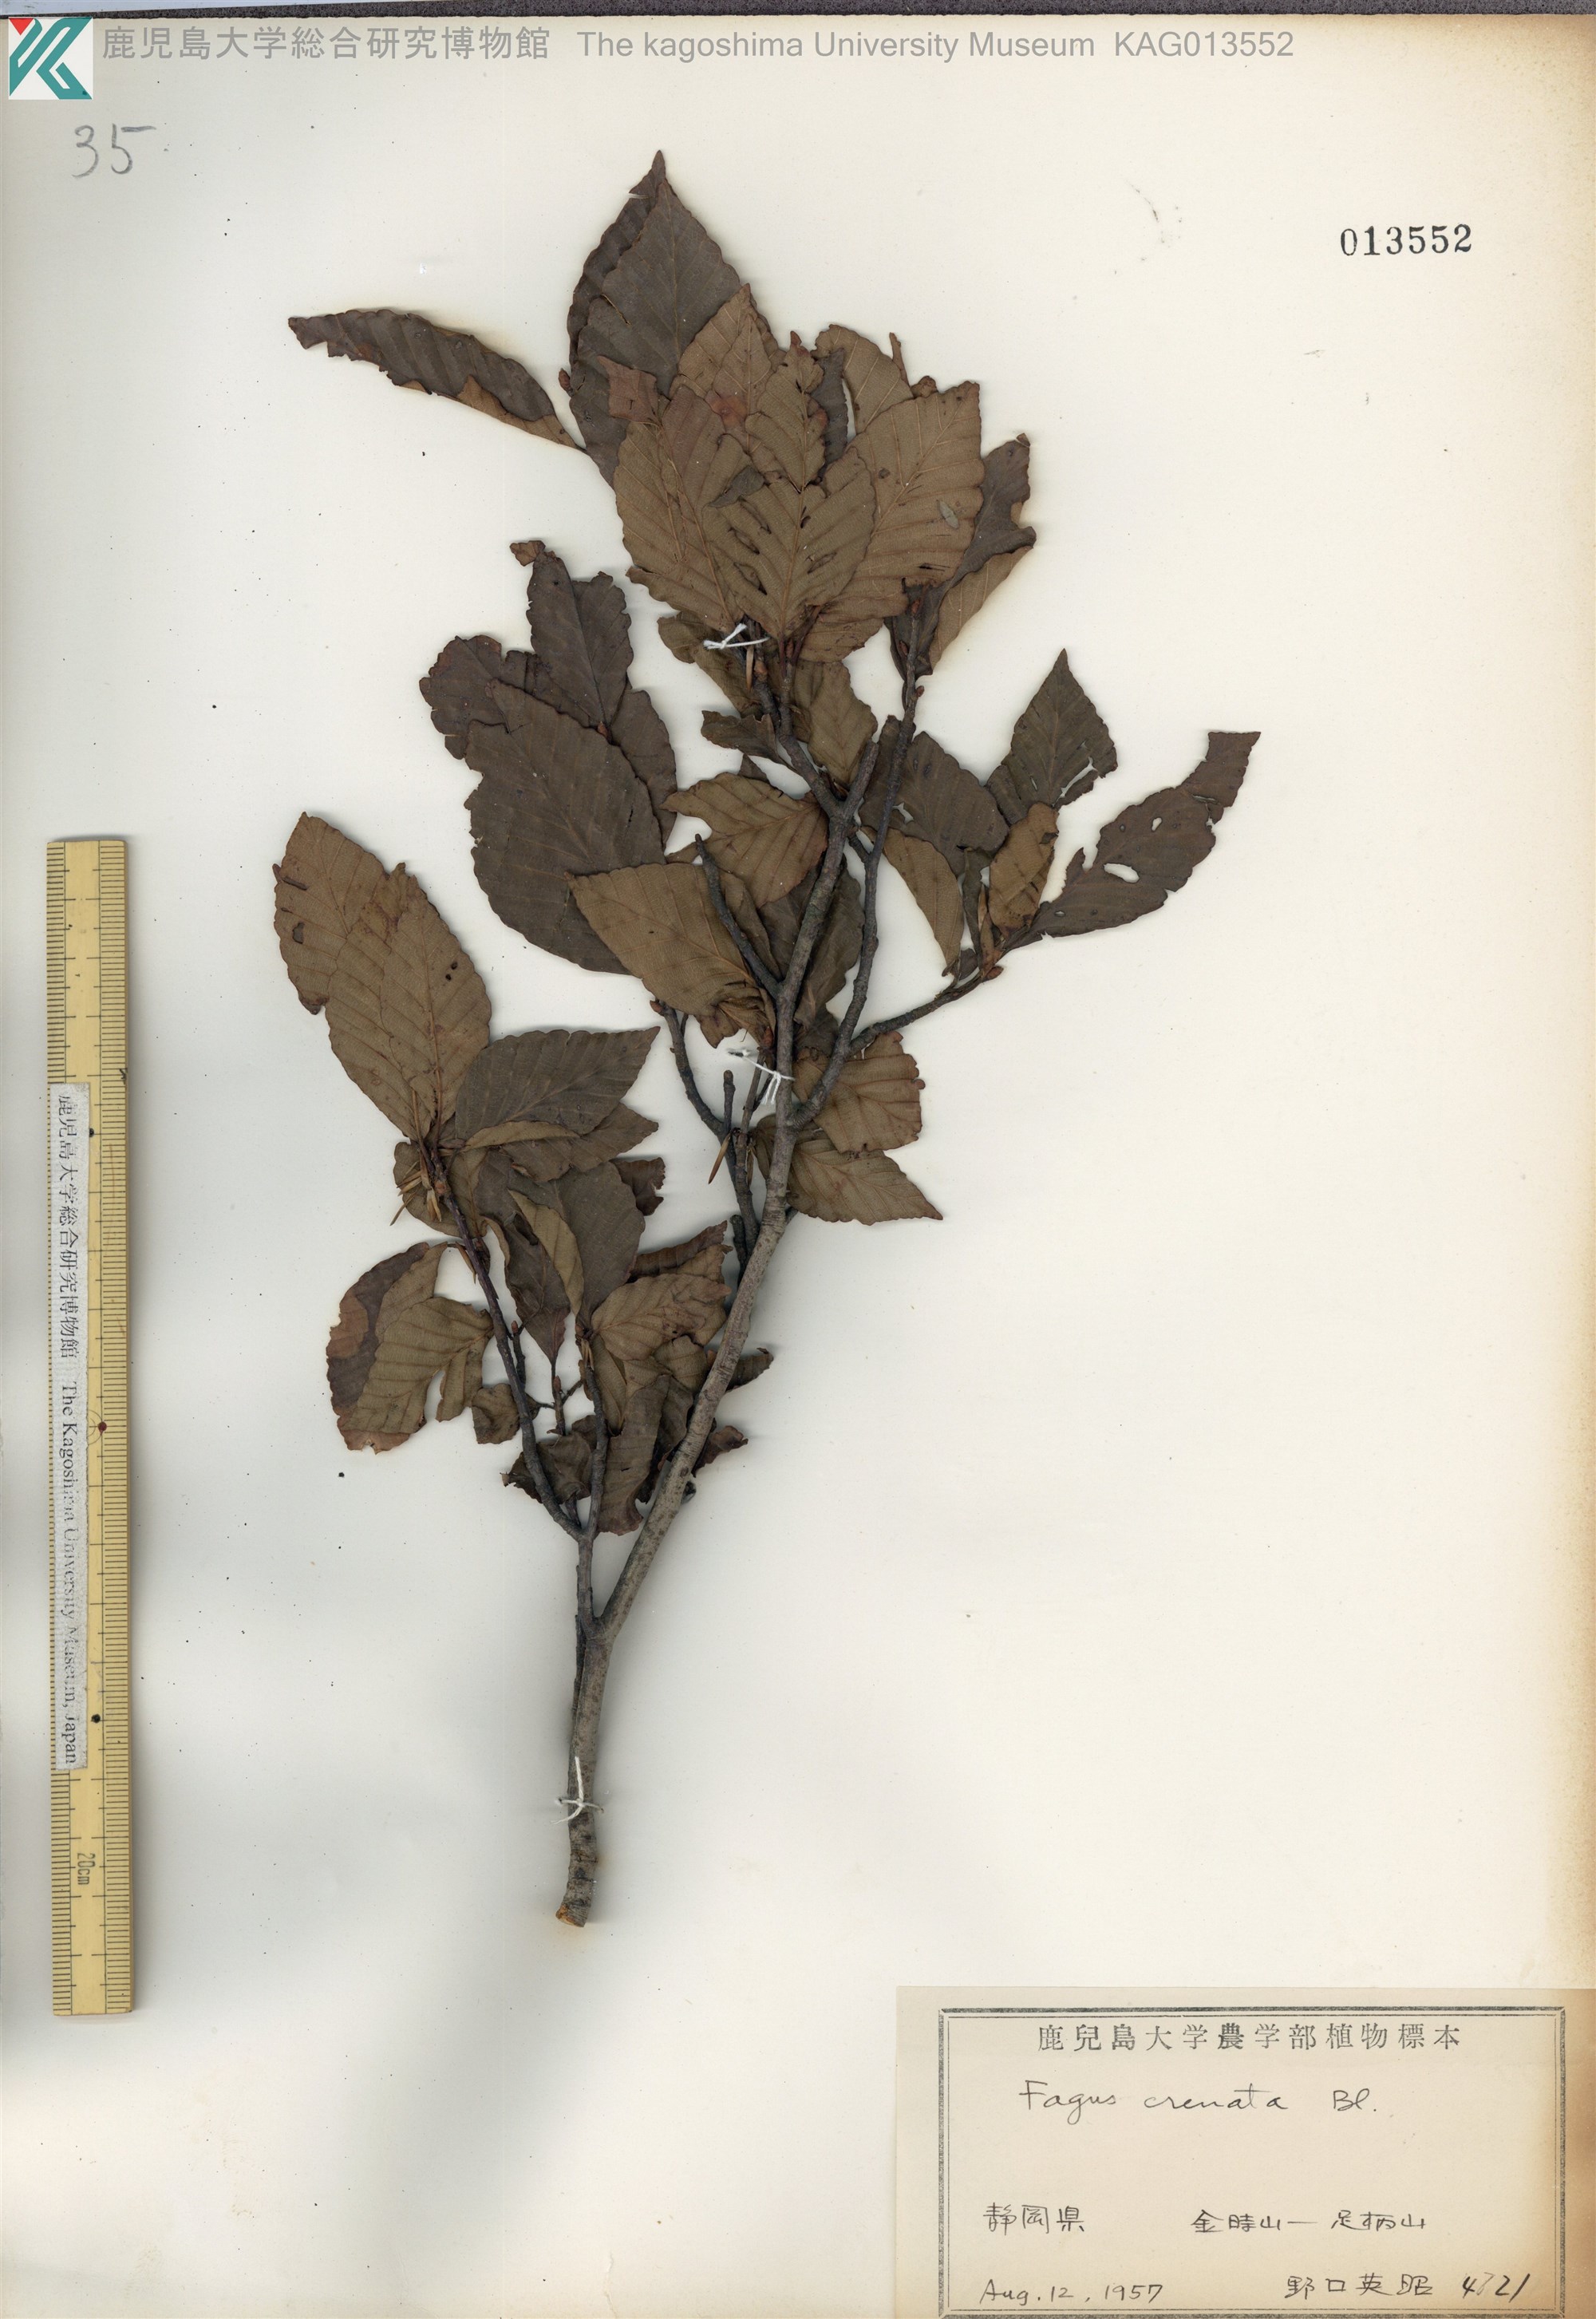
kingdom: Plantae
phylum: Tracheophyta
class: Magnoliopsida
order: Fagales
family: Fagaceae
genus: Fagus
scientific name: Fagus crenata
